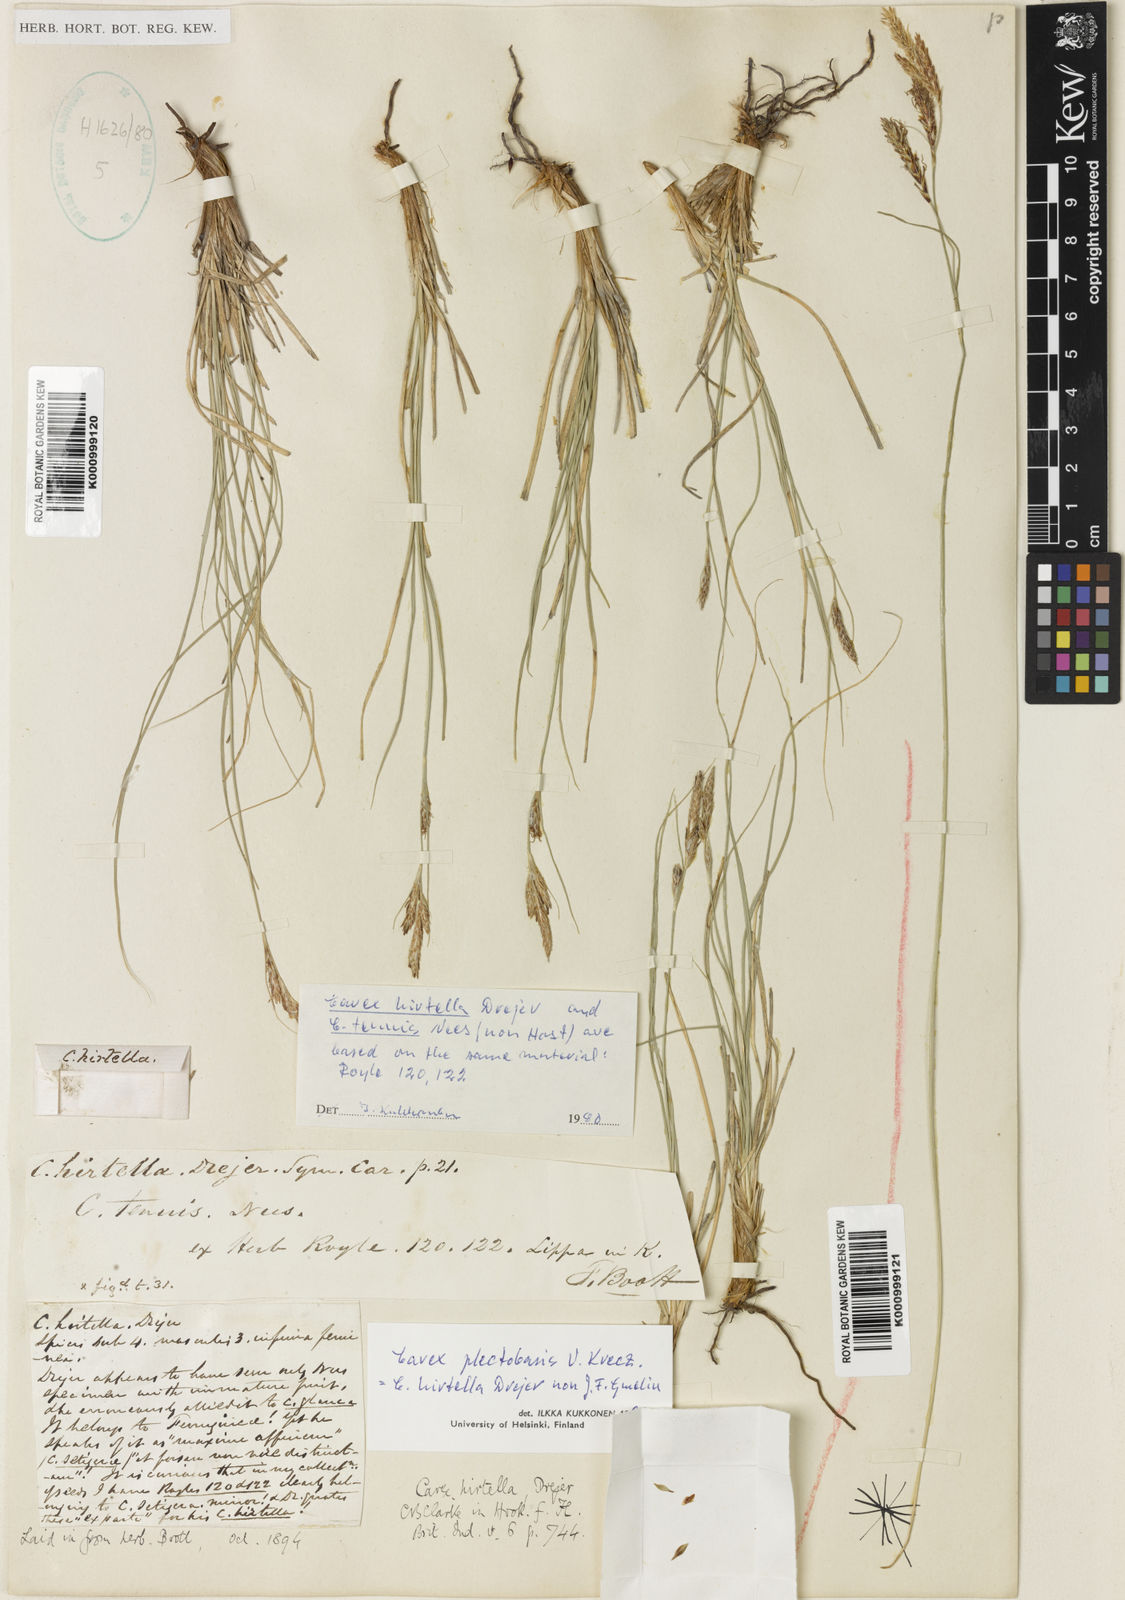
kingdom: Plantae
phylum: Tracheophyta
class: Liliopsida
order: Poales
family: Cyperaceae
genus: Carex
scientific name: Carex plectobasis
